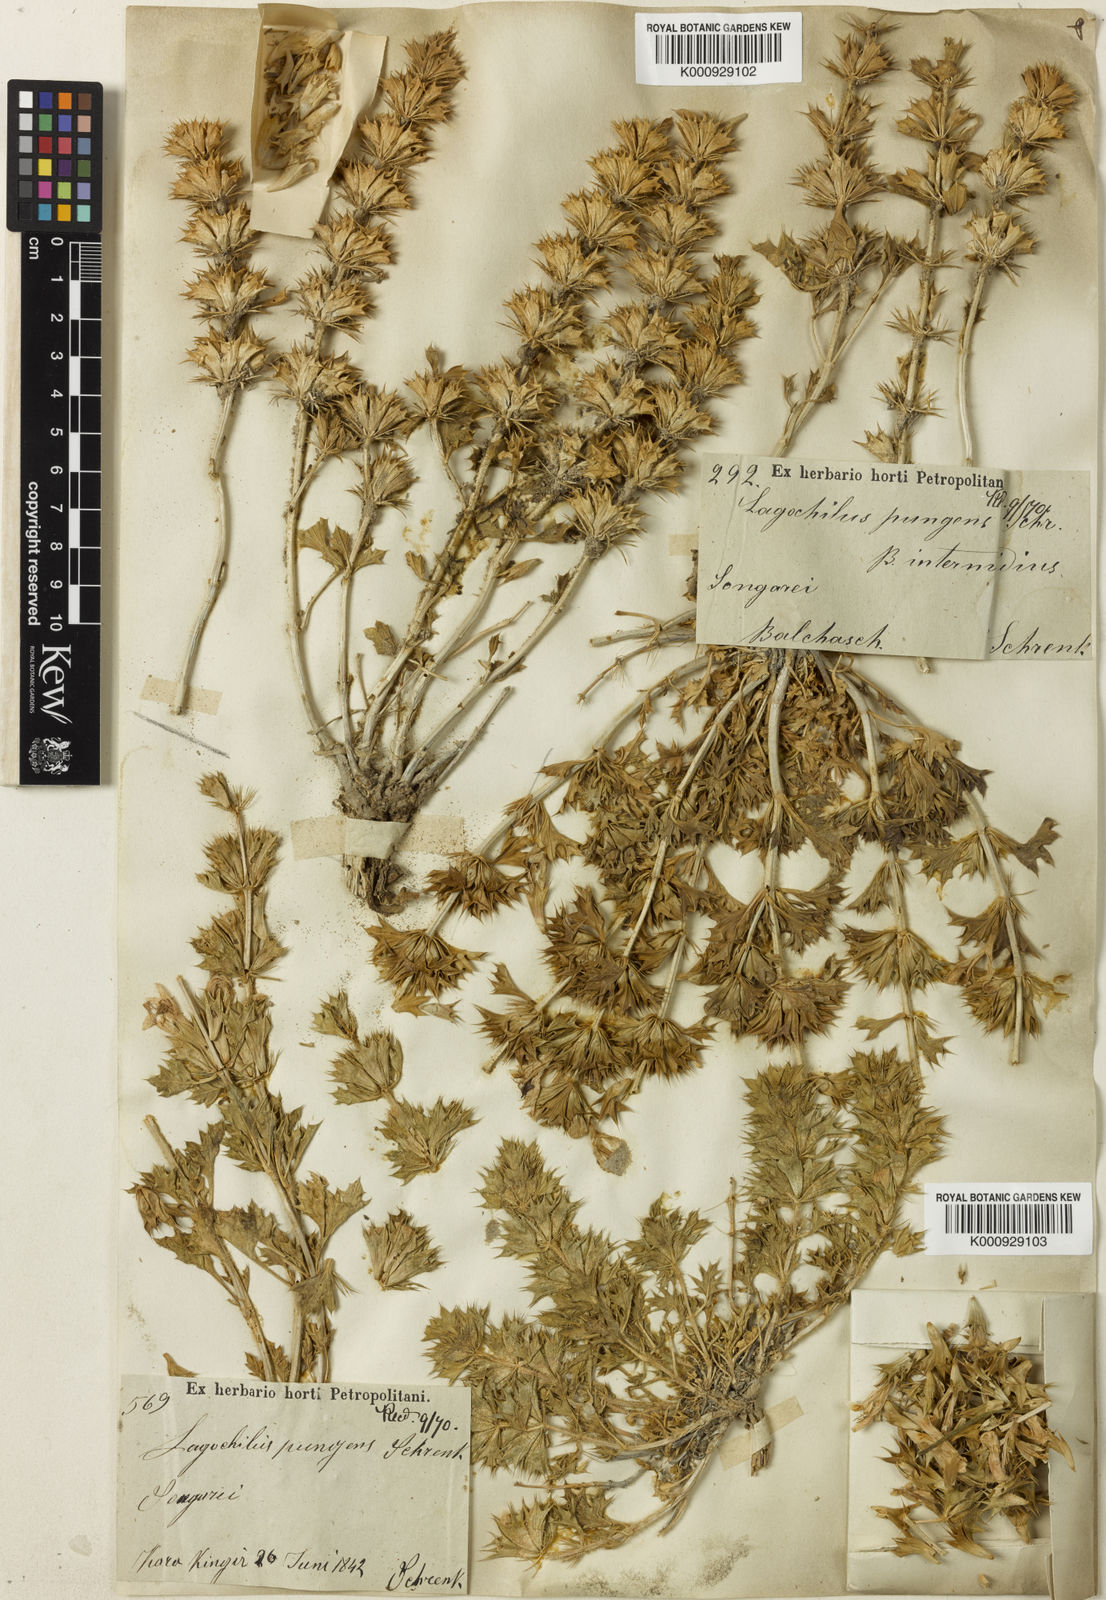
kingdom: Plantae
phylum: Tracheophyta
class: Magnoliopsida
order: Lamiales
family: Lamiaceae
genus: Lagochilus
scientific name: Lagochilus pungens
